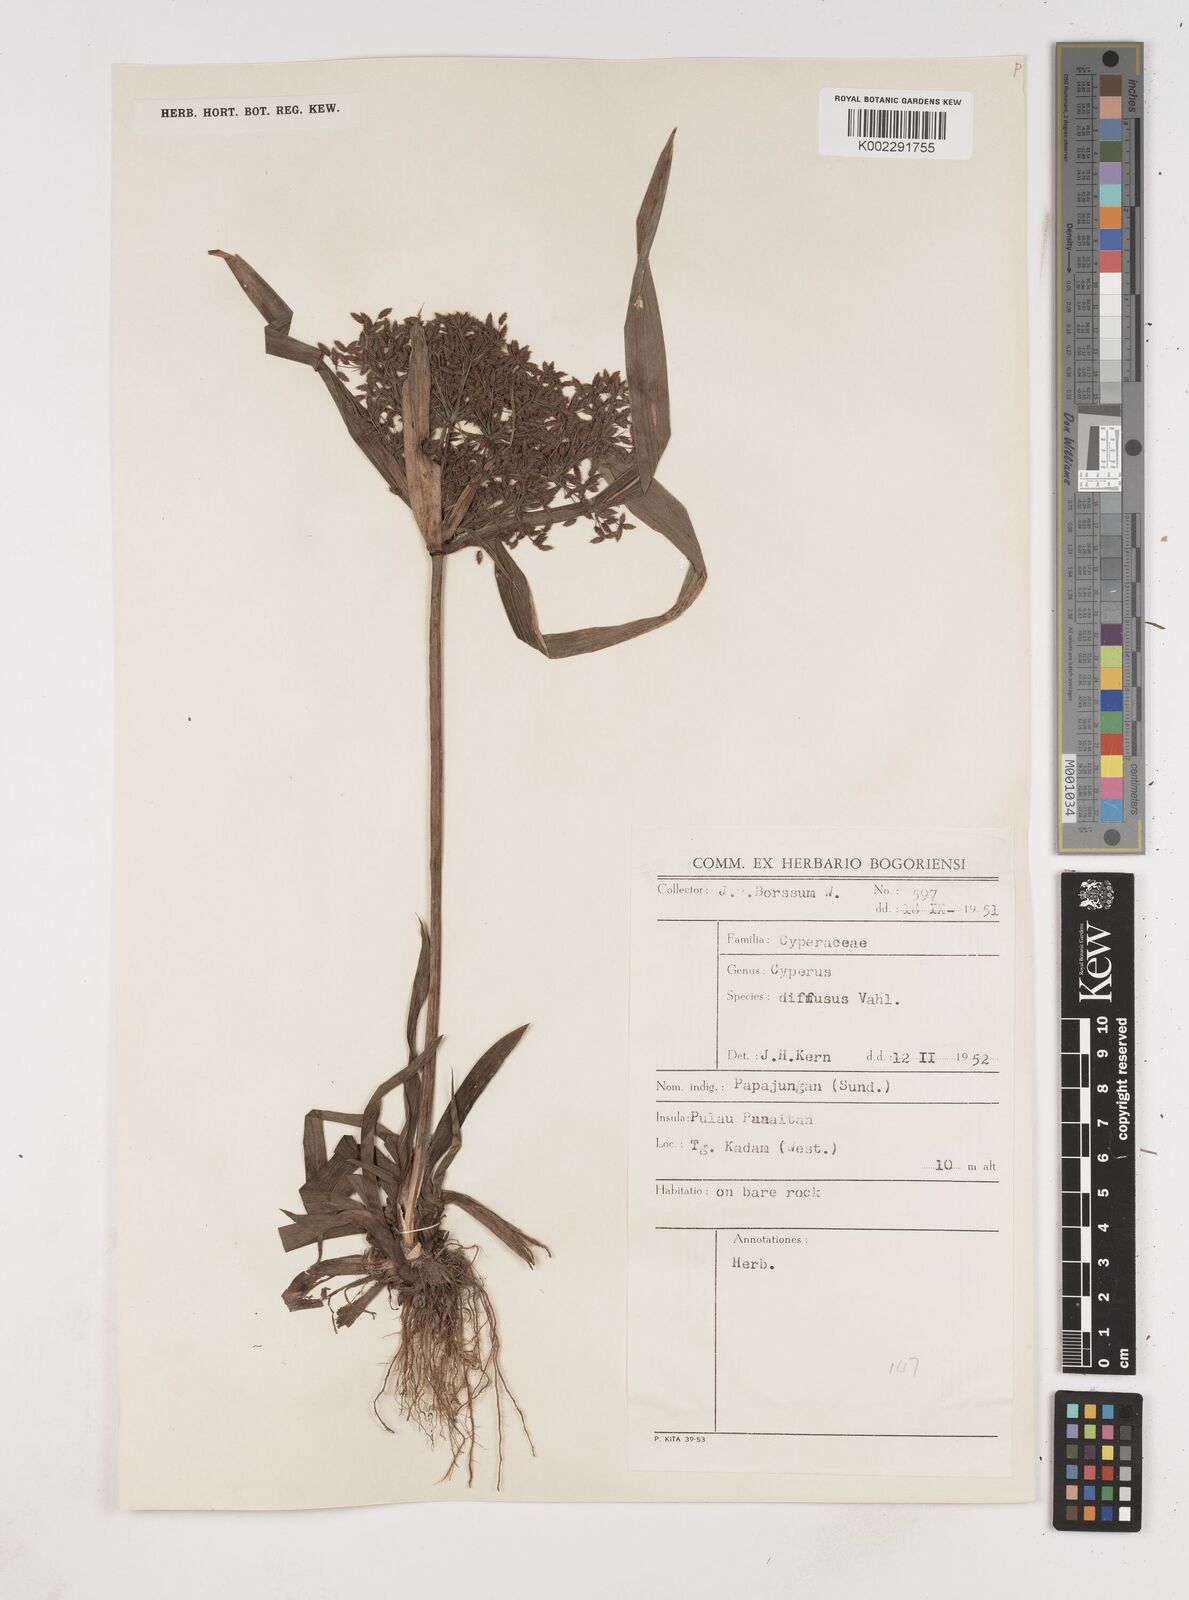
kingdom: Plantae
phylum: Tracheophyta
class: Liliopsida
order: Poales
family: Cyperaceae
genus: Cyperus
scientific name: Cyperus diffusus
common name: Dwarf umbrella grass
